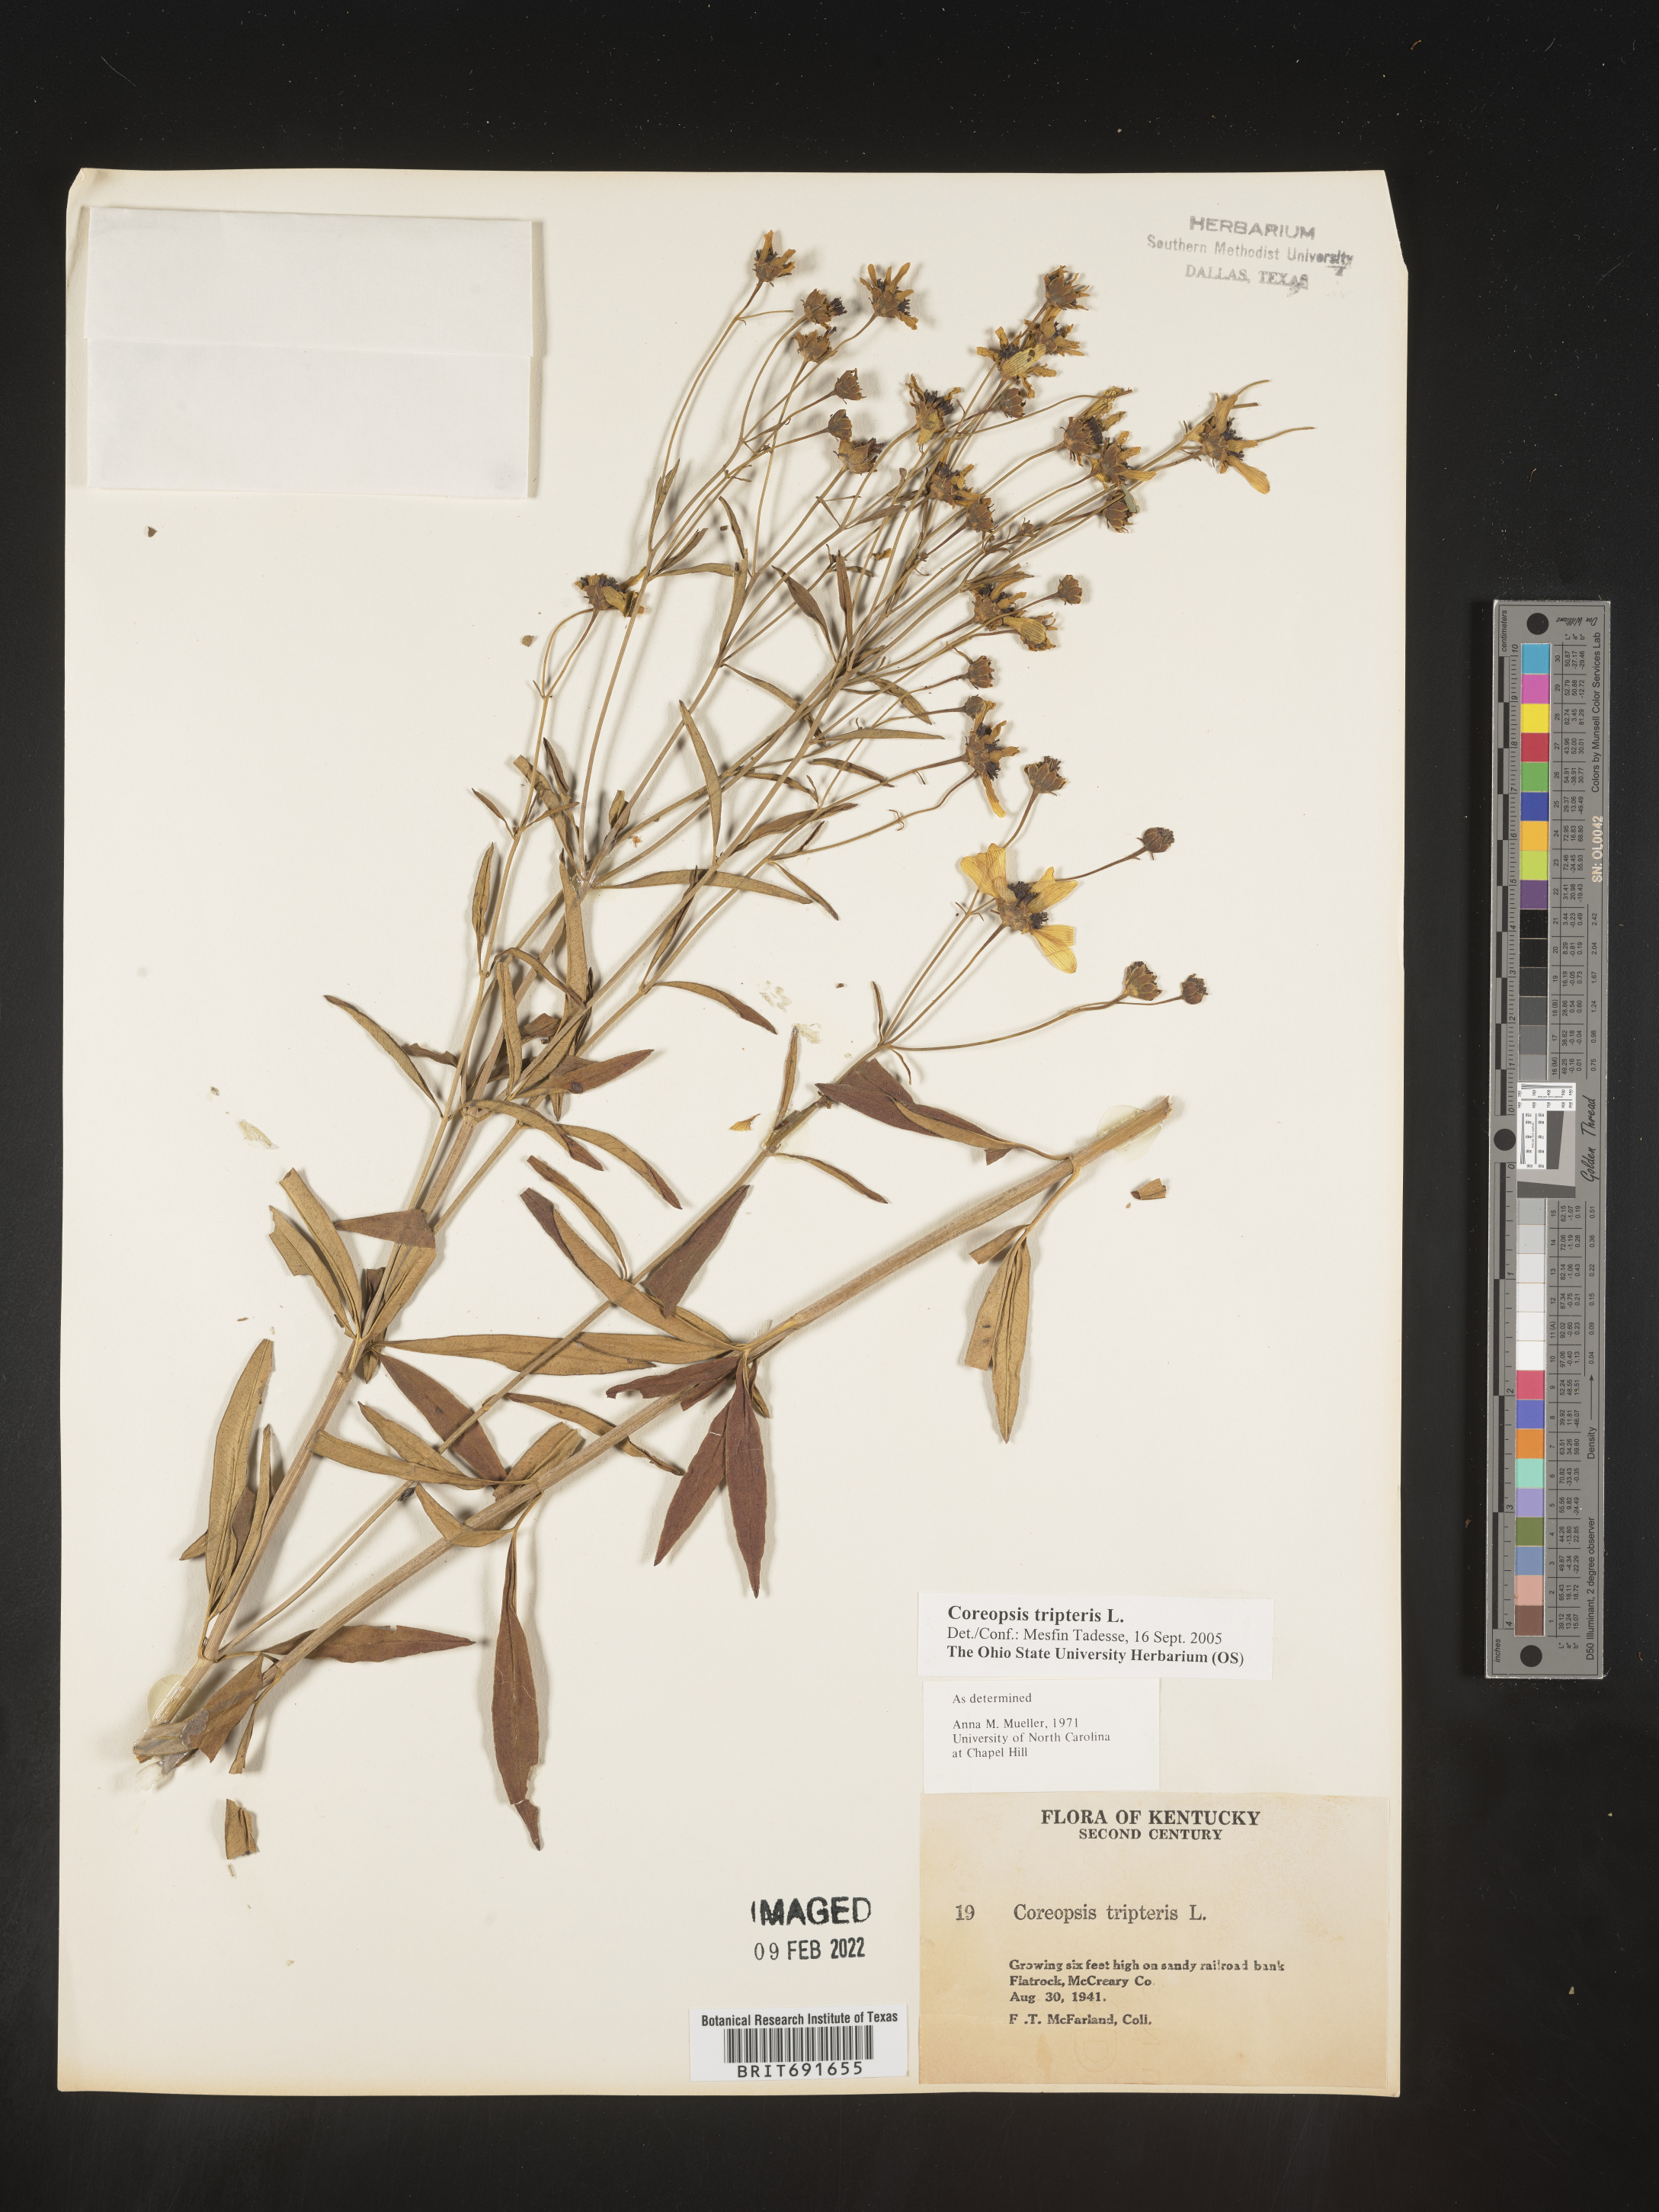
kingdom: Plantae
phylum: Tracheophyta
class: Magnoliopsida
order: Asterales
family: Asteraceae
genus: Coreopsis
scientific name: Coreopsis tripteris
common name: Tall coreopsis
